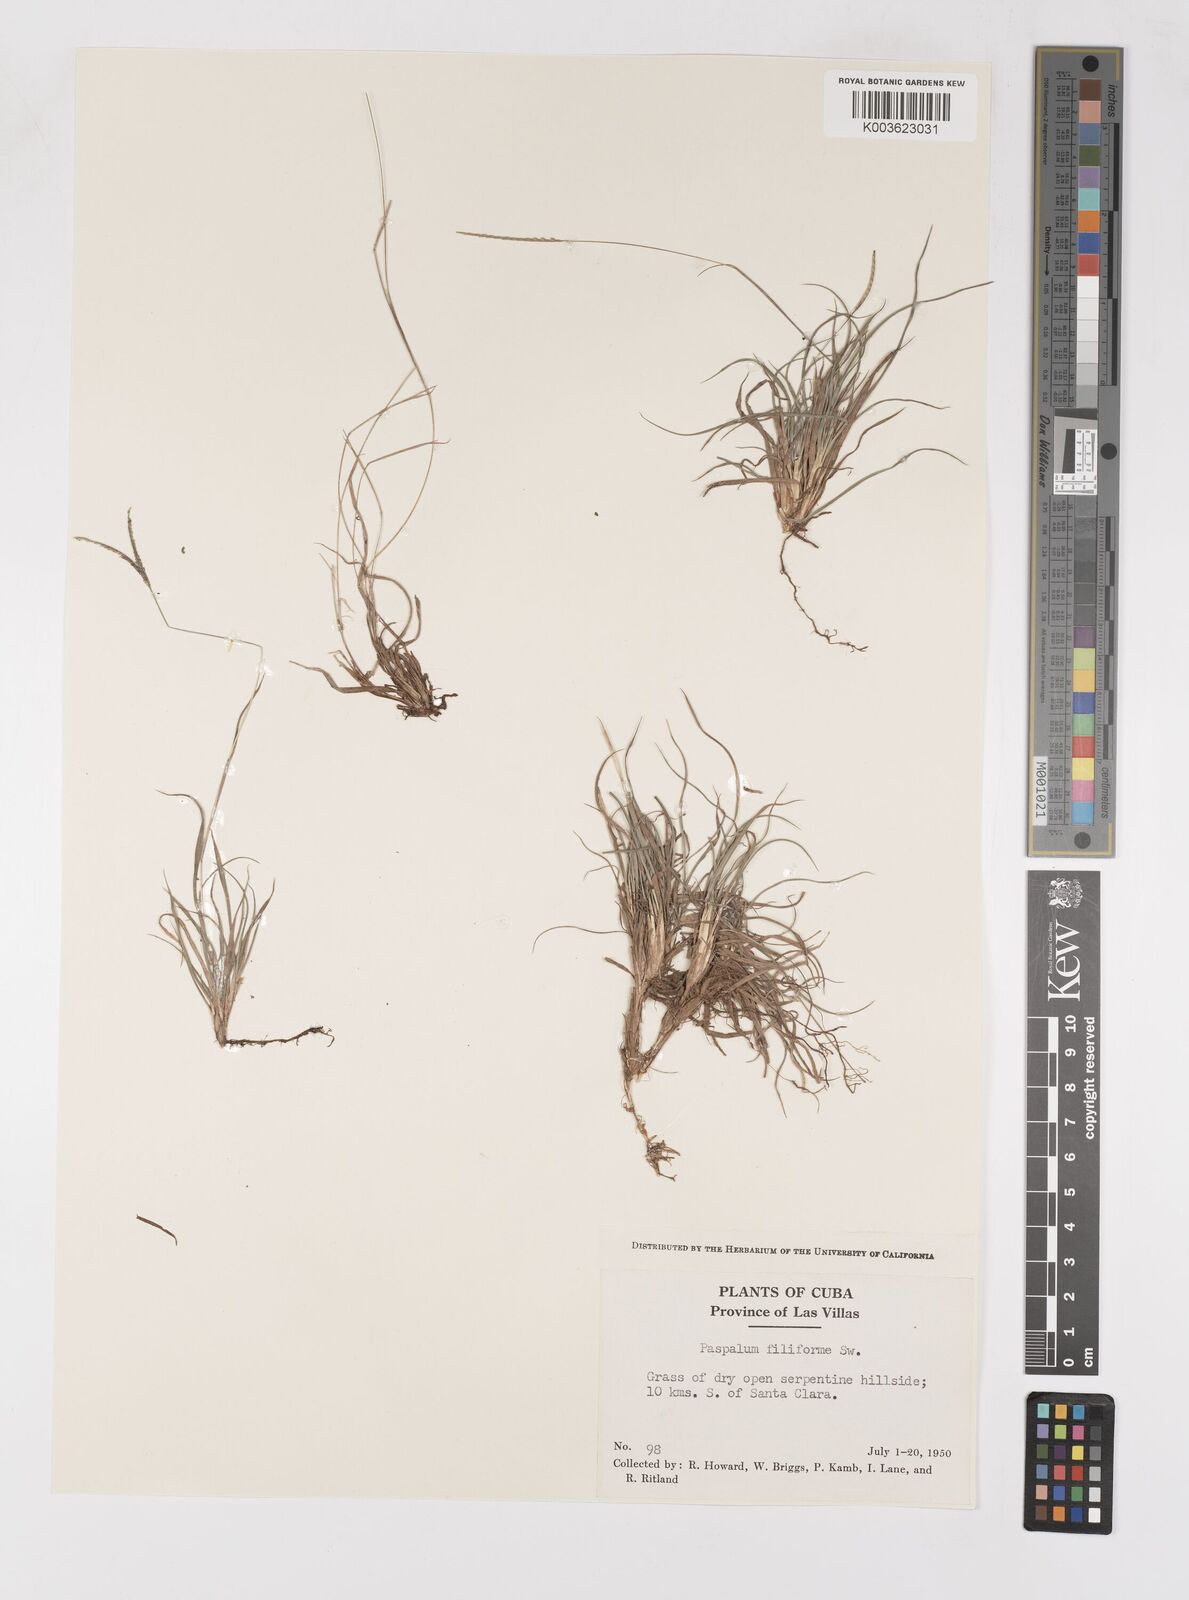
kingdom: Plantae
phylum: Tracheophyta
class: Liliopsida
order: Poales
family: Poaceae
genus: Paspalum
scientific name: Paspalum filiforme
